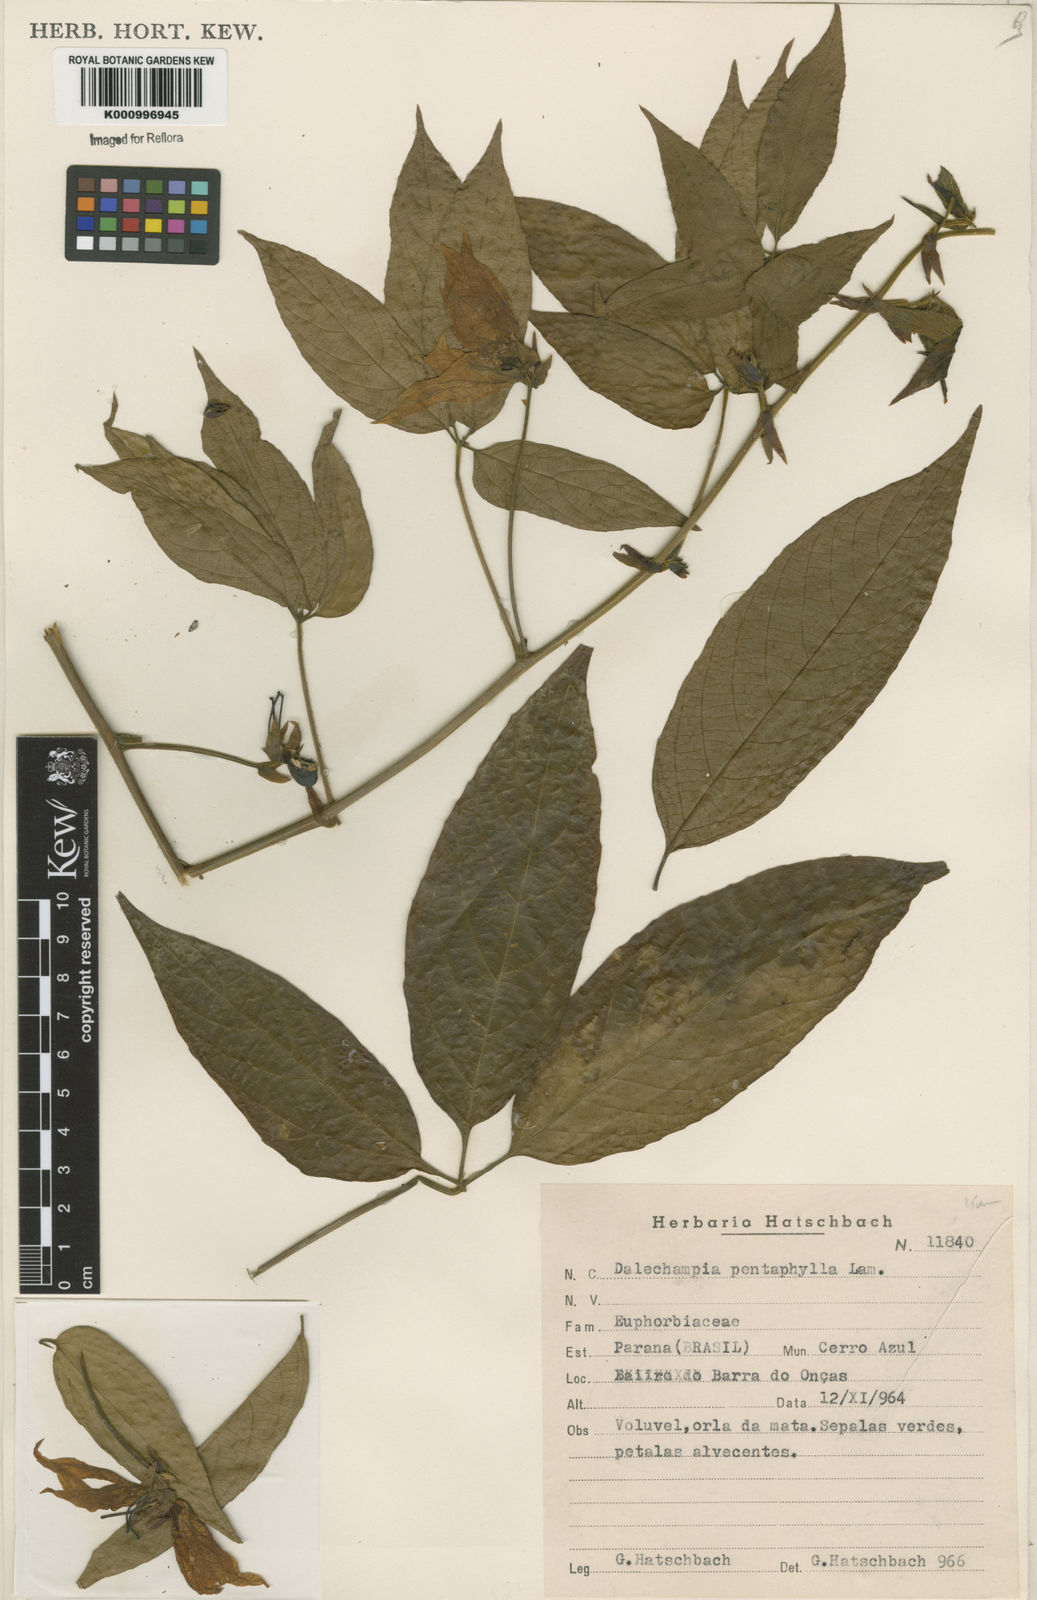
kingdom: Plantae
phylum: Tracheophyta
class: Magnoliopsida
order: Malpighiales
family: Euphorbiaceae
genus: Dalechampia
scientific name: Dalechampia pentaphylla
